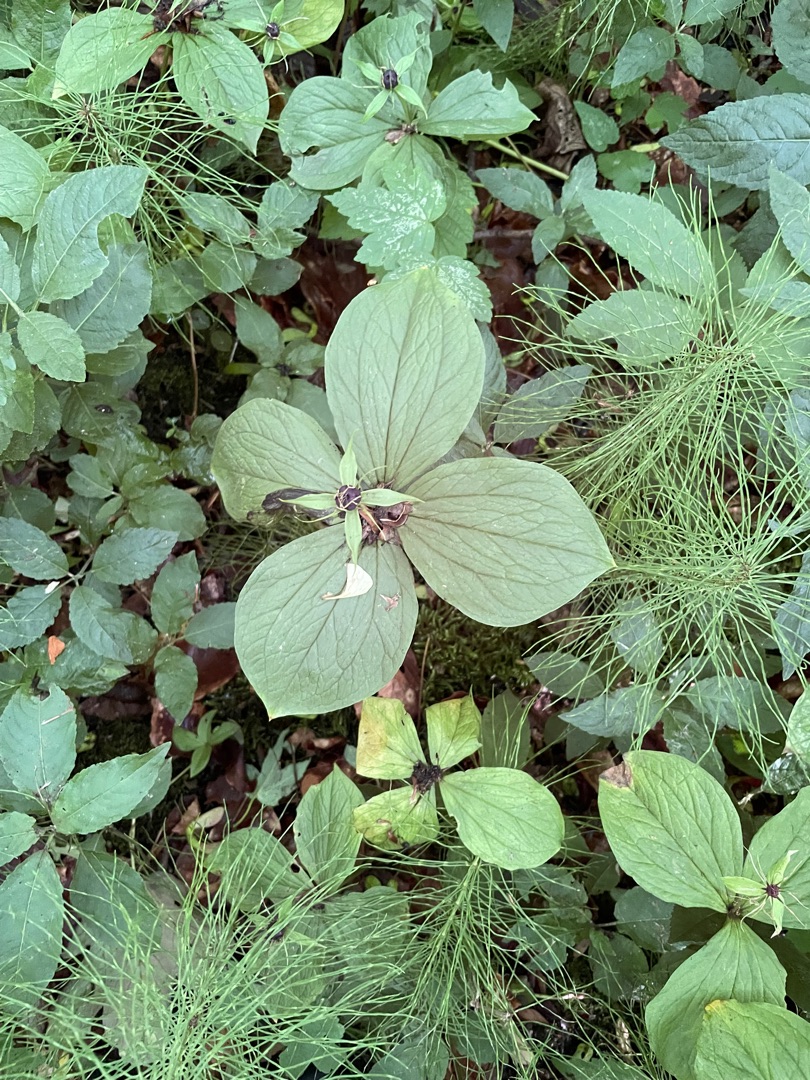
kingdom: Plantae
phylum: Tracheophyta
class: Liliopsida
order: Liliales
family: Melanthiaceae
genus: Paris
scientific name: Paris quadrifolia
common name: Firblad
